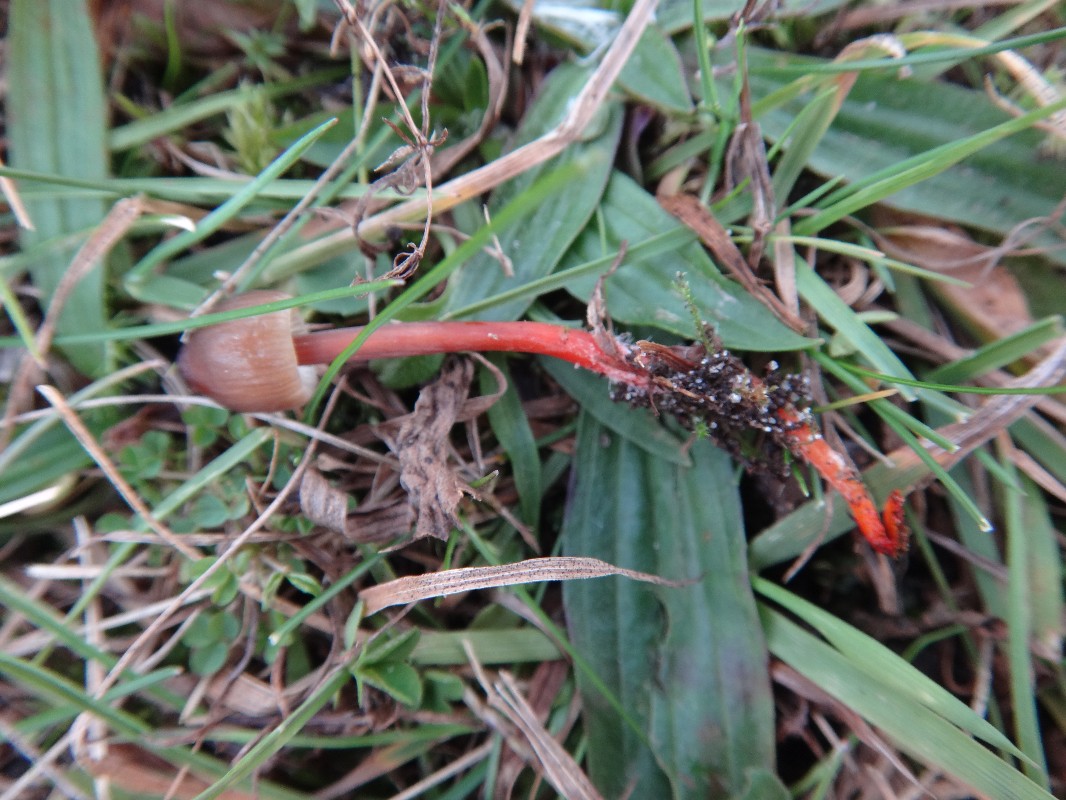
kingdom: Fungi
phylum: Basidiomycota
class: Agaricomycetes
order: Agaricales
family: Mycenaceae
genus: Mycena
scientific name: Mycena crocata
